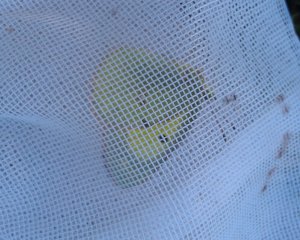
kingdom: Animalia
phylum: Arthropoda
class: Insecta
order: Lepidoptera
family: Pieridae
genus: Colias
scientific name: Colias philodice
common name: Clouded Sulphur
